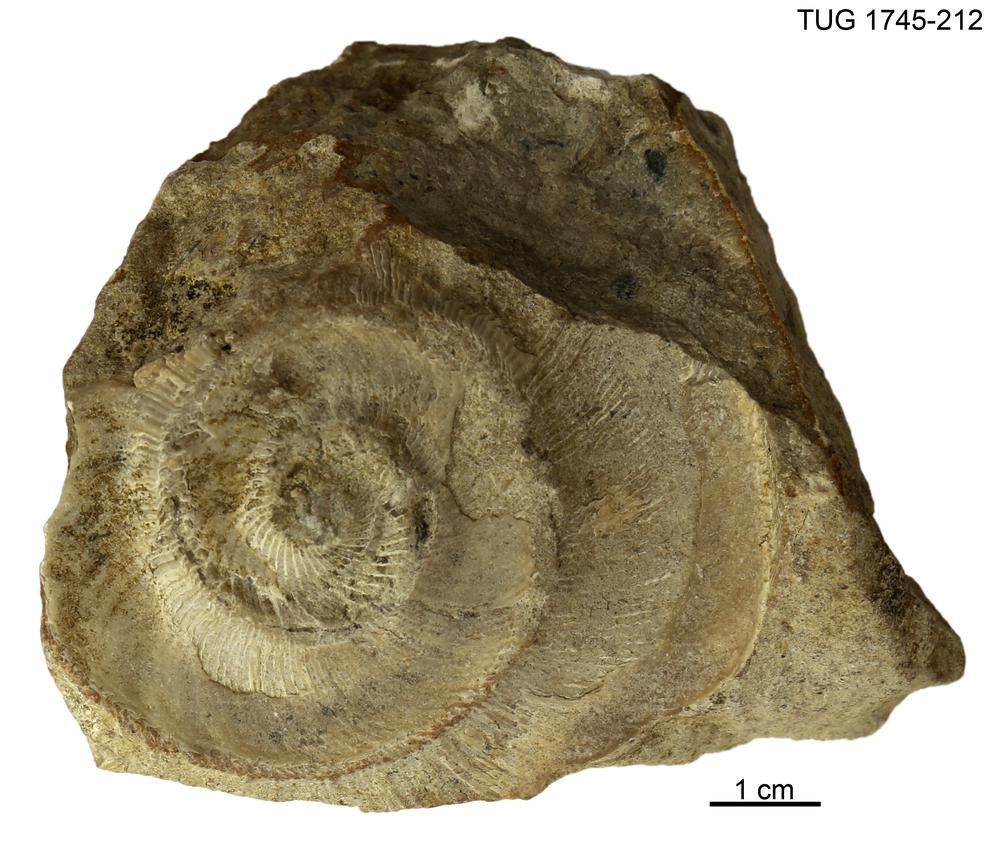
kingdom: Animalia
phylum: Mollusca
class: Cephalopoda
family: Trocholitidae
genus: Schroederoceras
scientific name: Schroederoceras
